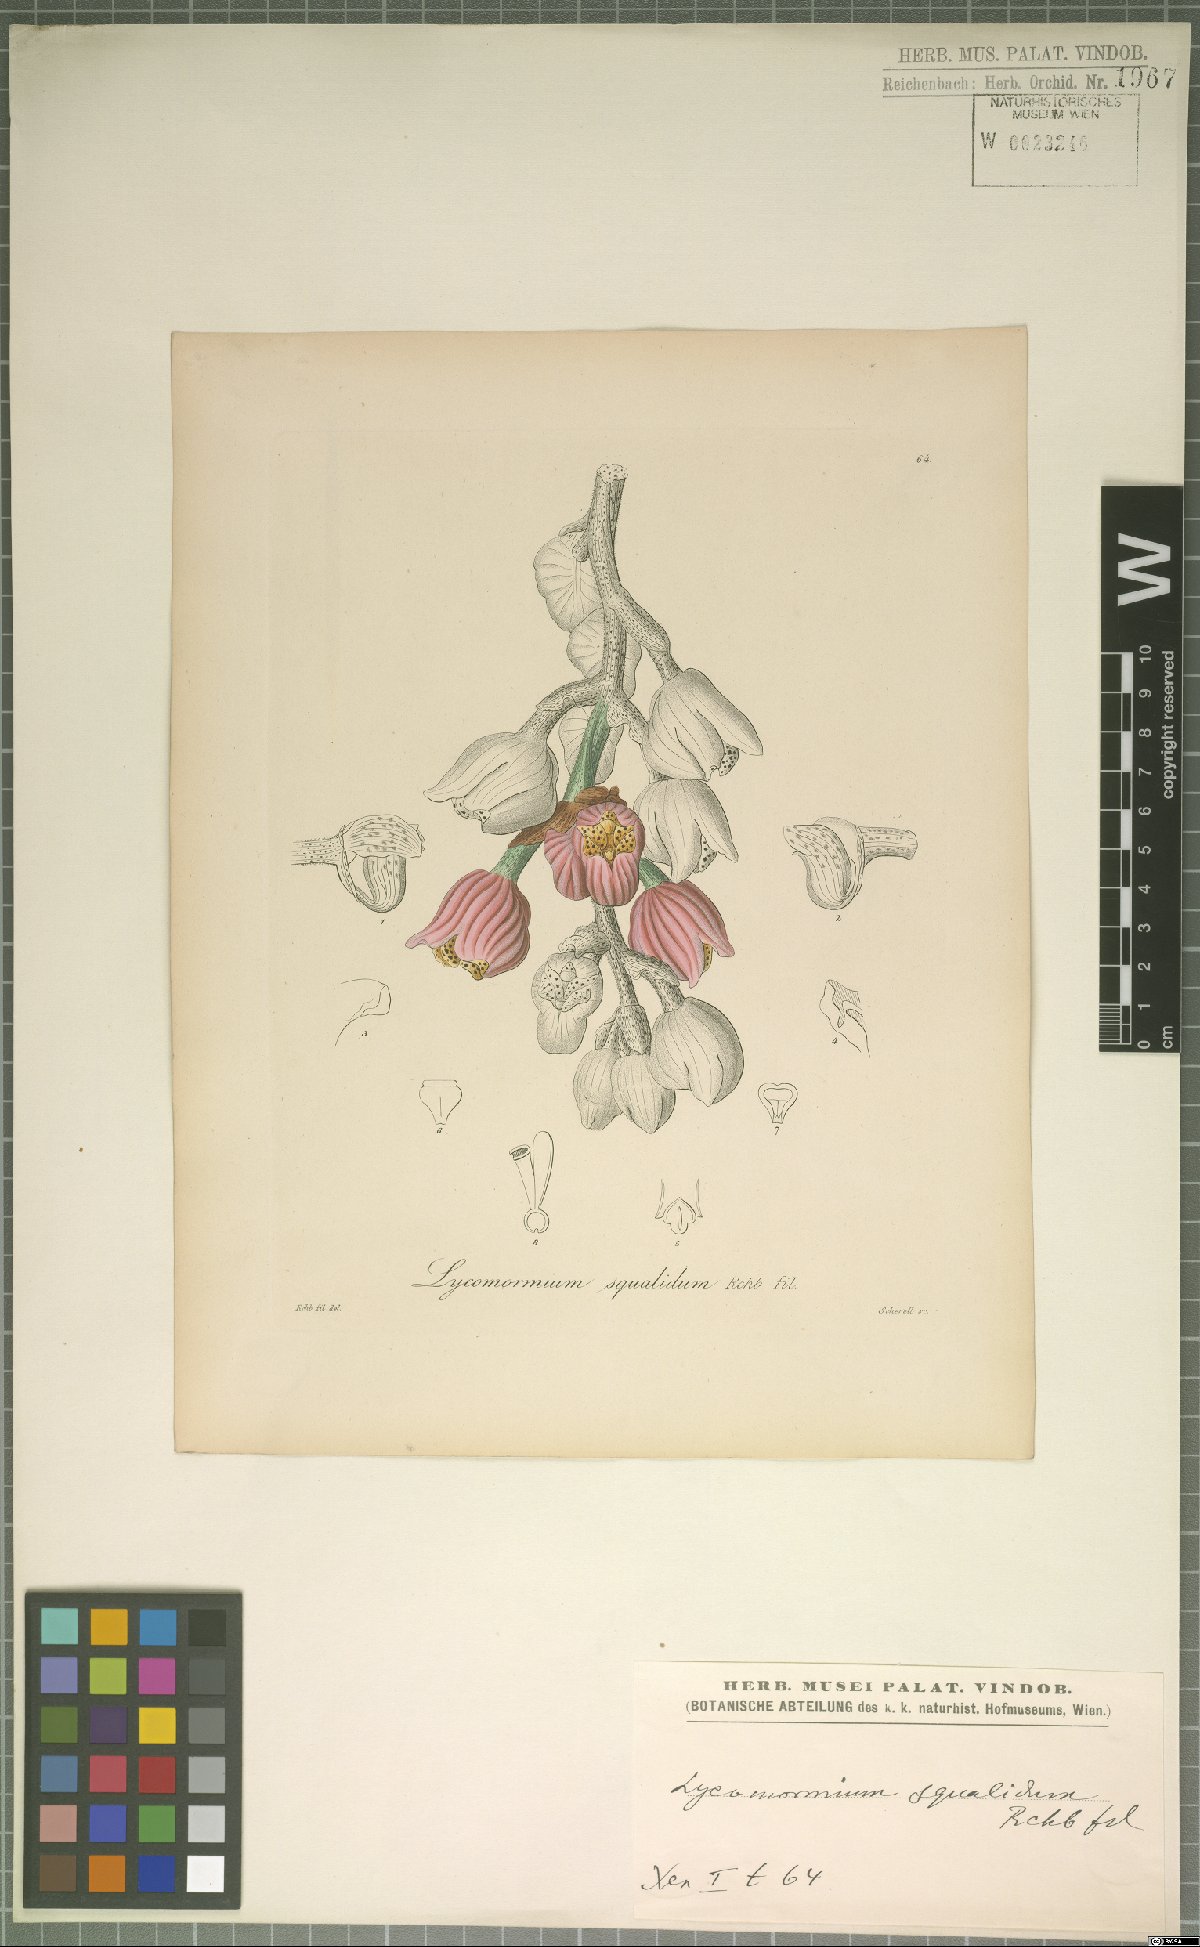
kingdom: Plantae
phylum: Tracheophyta
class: Liliopsida
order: Asparagales
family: Orchidaceae
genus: Lycomormium
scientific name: Lycomormium squalidum
